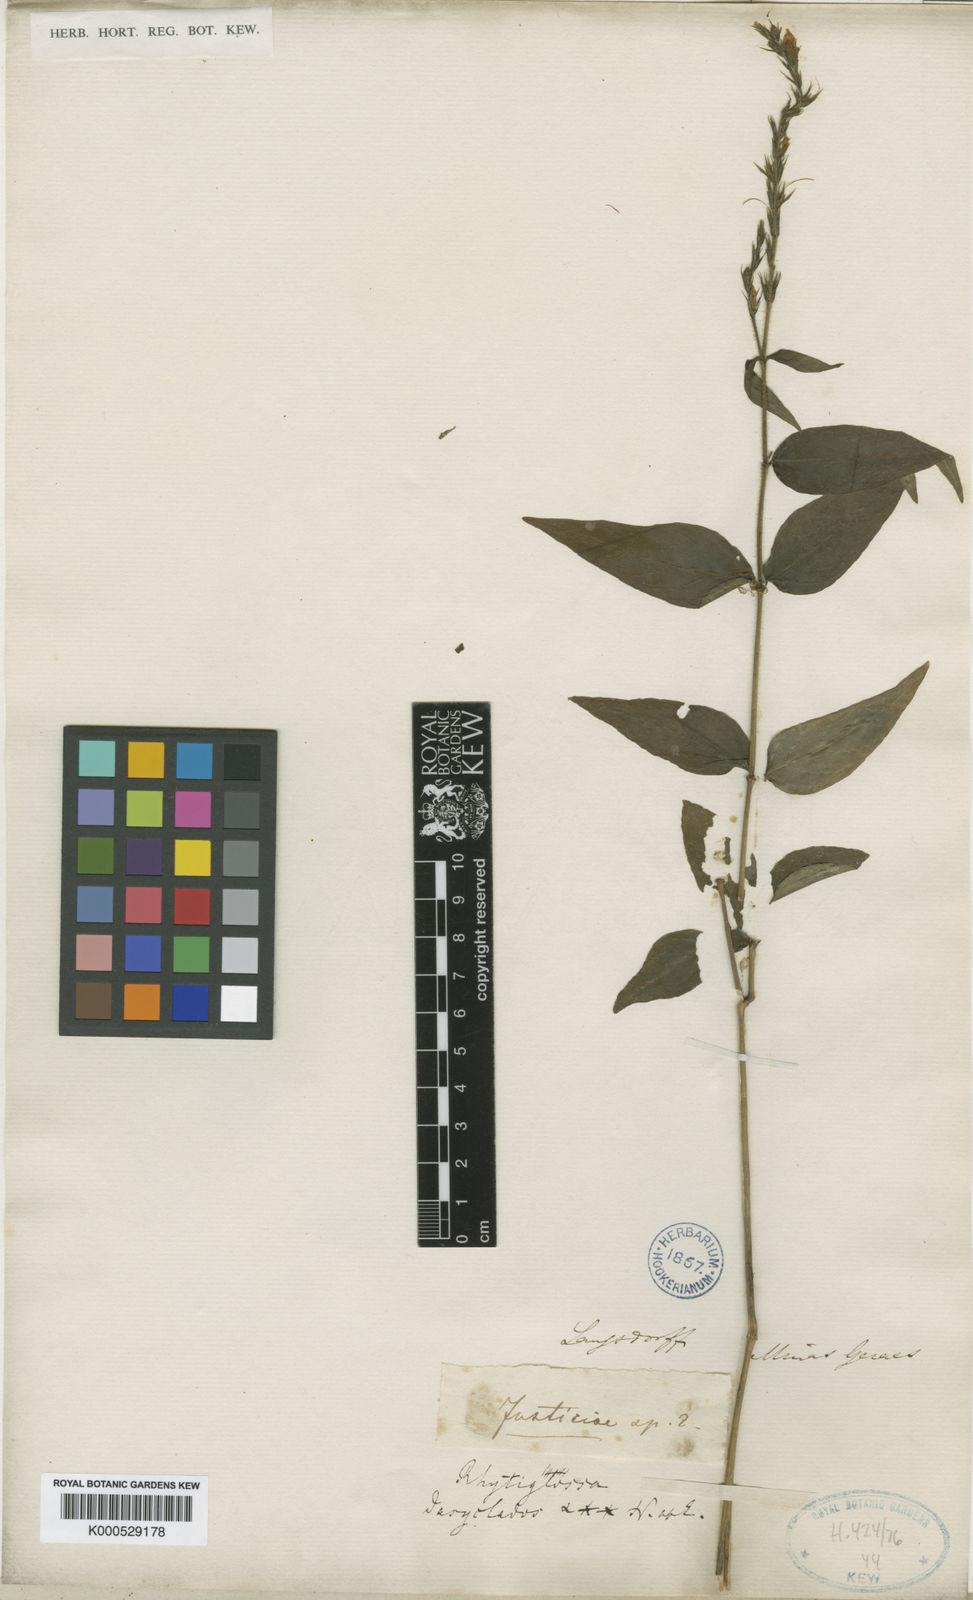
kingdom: Plantae
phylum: Tracheophyta
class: Magnoliopsida
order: Lamiales
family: Acanthaceae
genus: Dianthera
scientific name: Dianthera dasyclados
